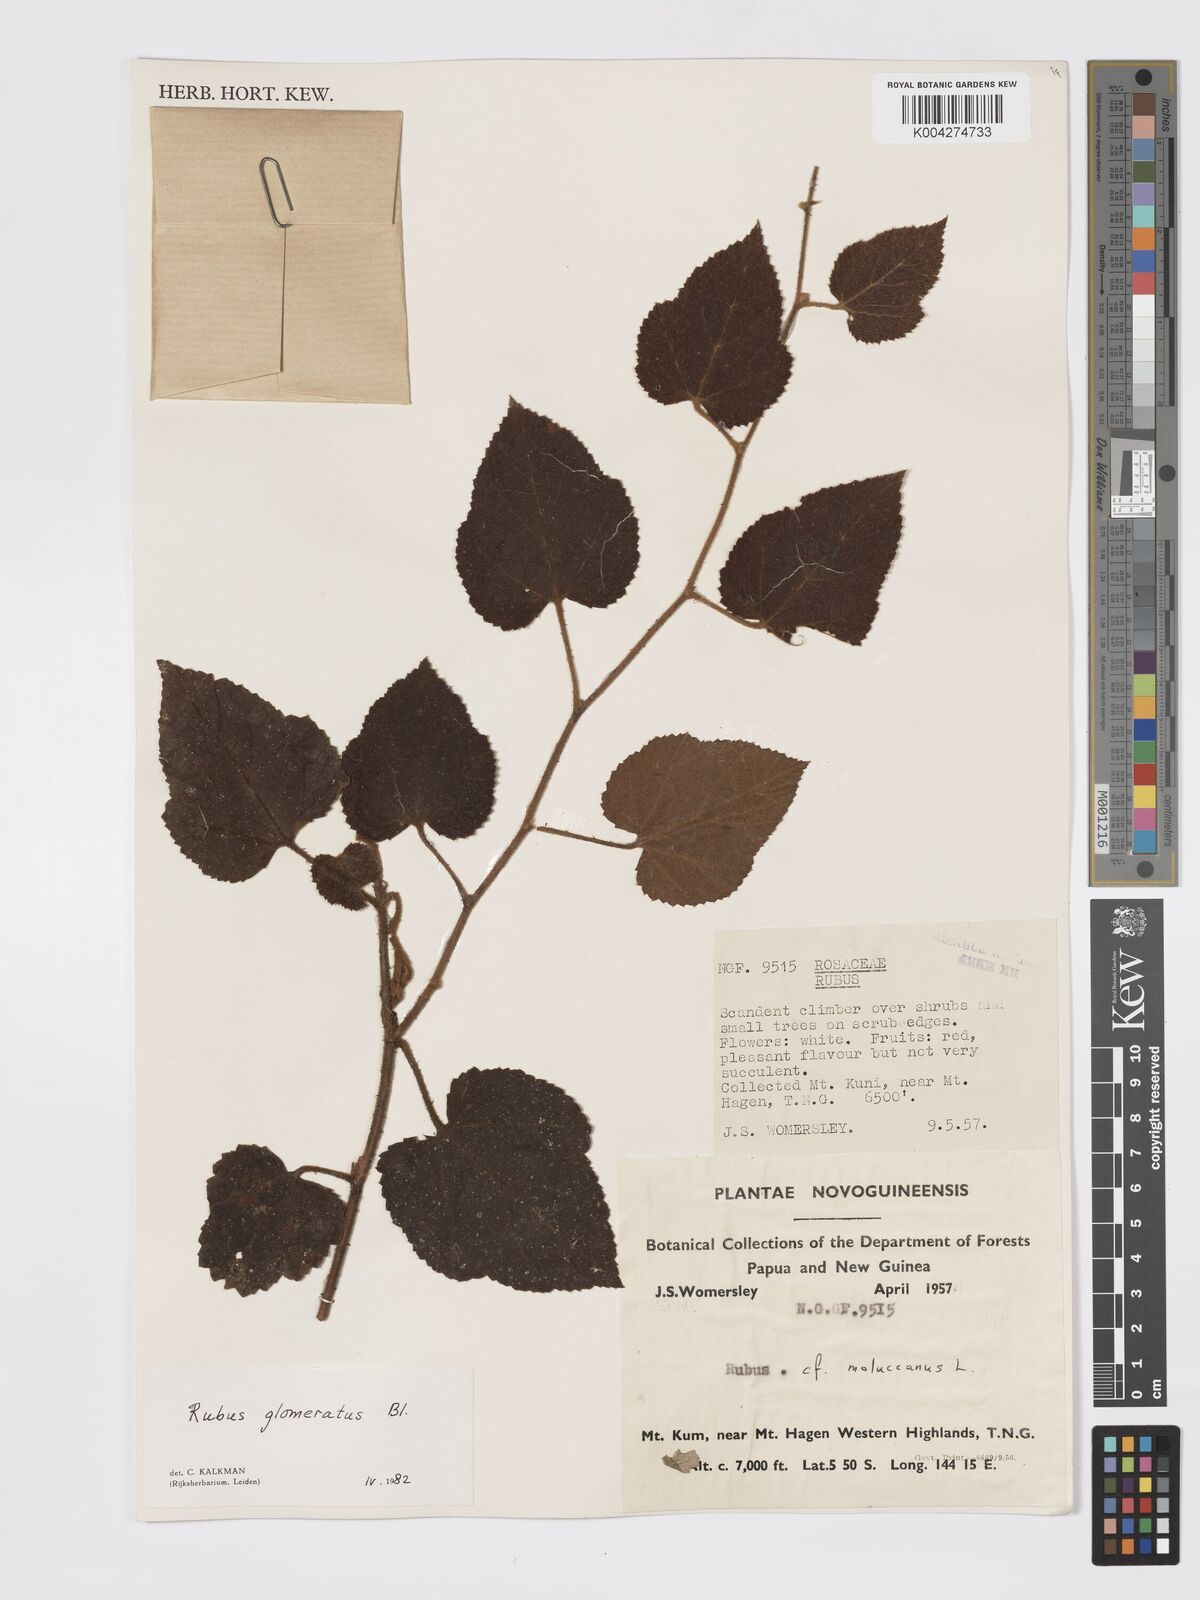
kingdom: Plantae
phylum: Tracheophyta
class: Magnoliopsida
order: Rosales
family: Rosaceae
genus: Rubus
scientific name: Rubus
